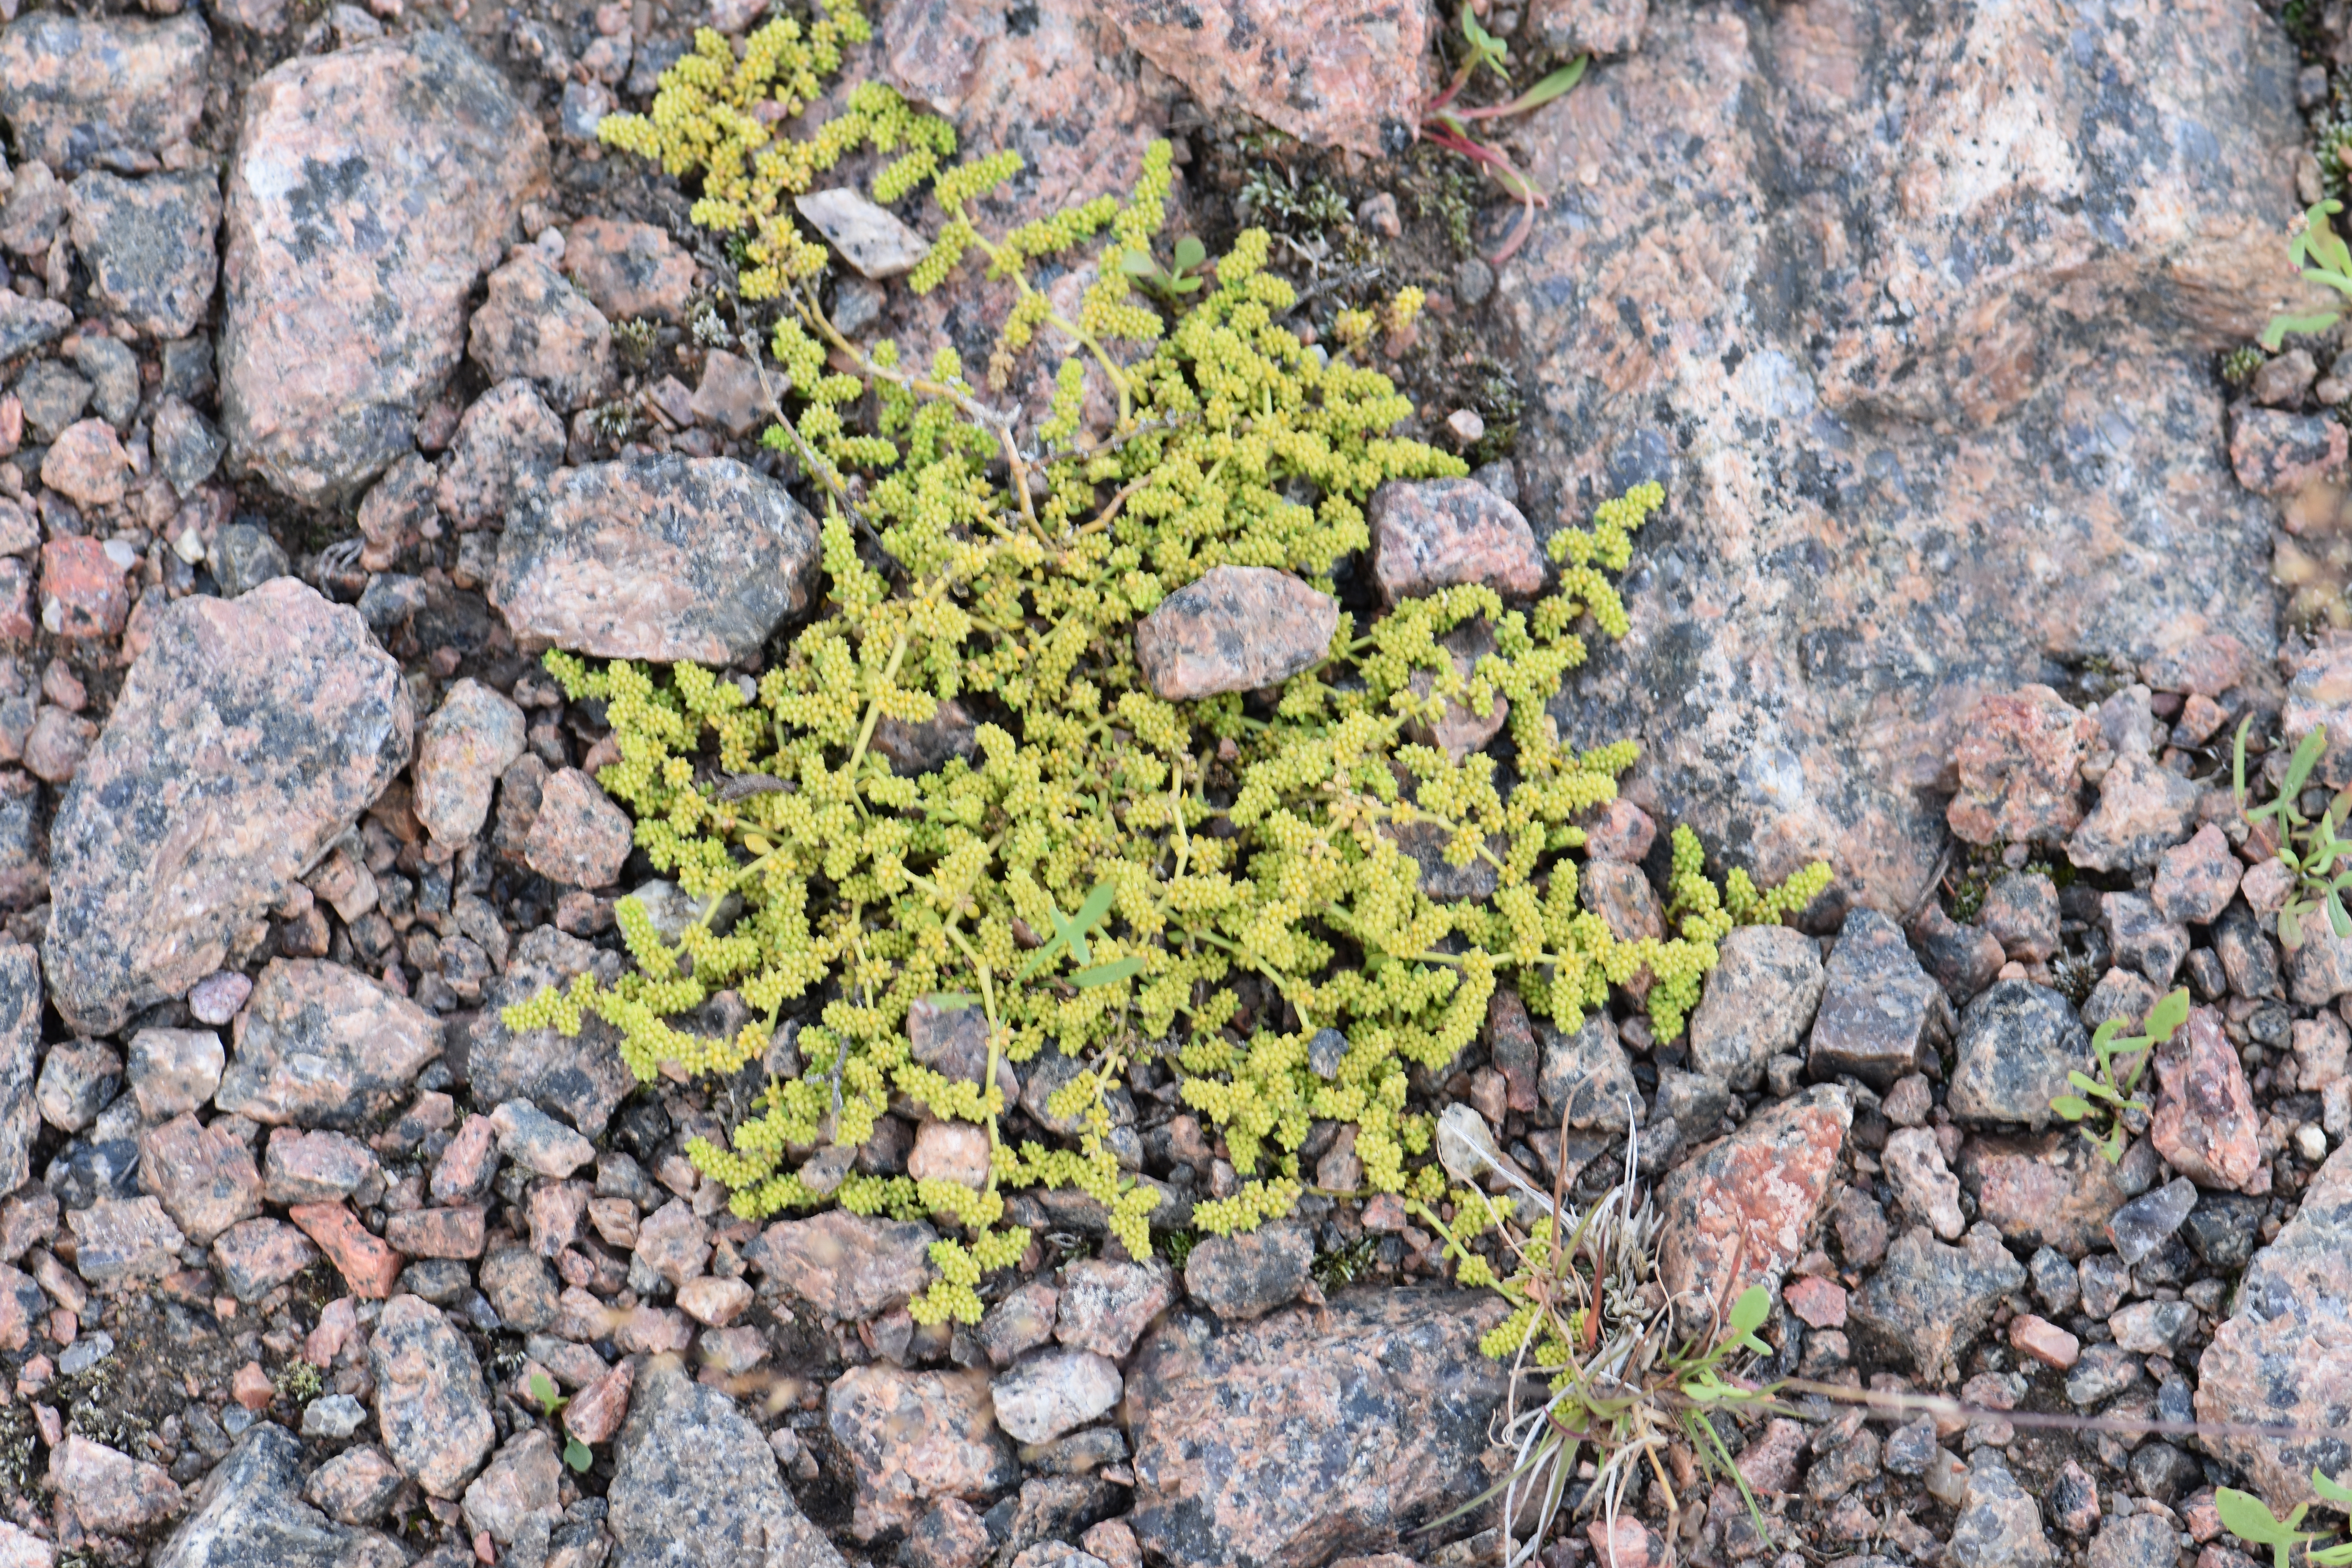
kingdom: Plantae
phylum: Tracheophyta
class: Magnoliopsida
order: Caryophyllales
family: Caryophyllaceae
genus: Herniaria
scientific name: Herniaria glabra
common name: Smooth rupturewort
